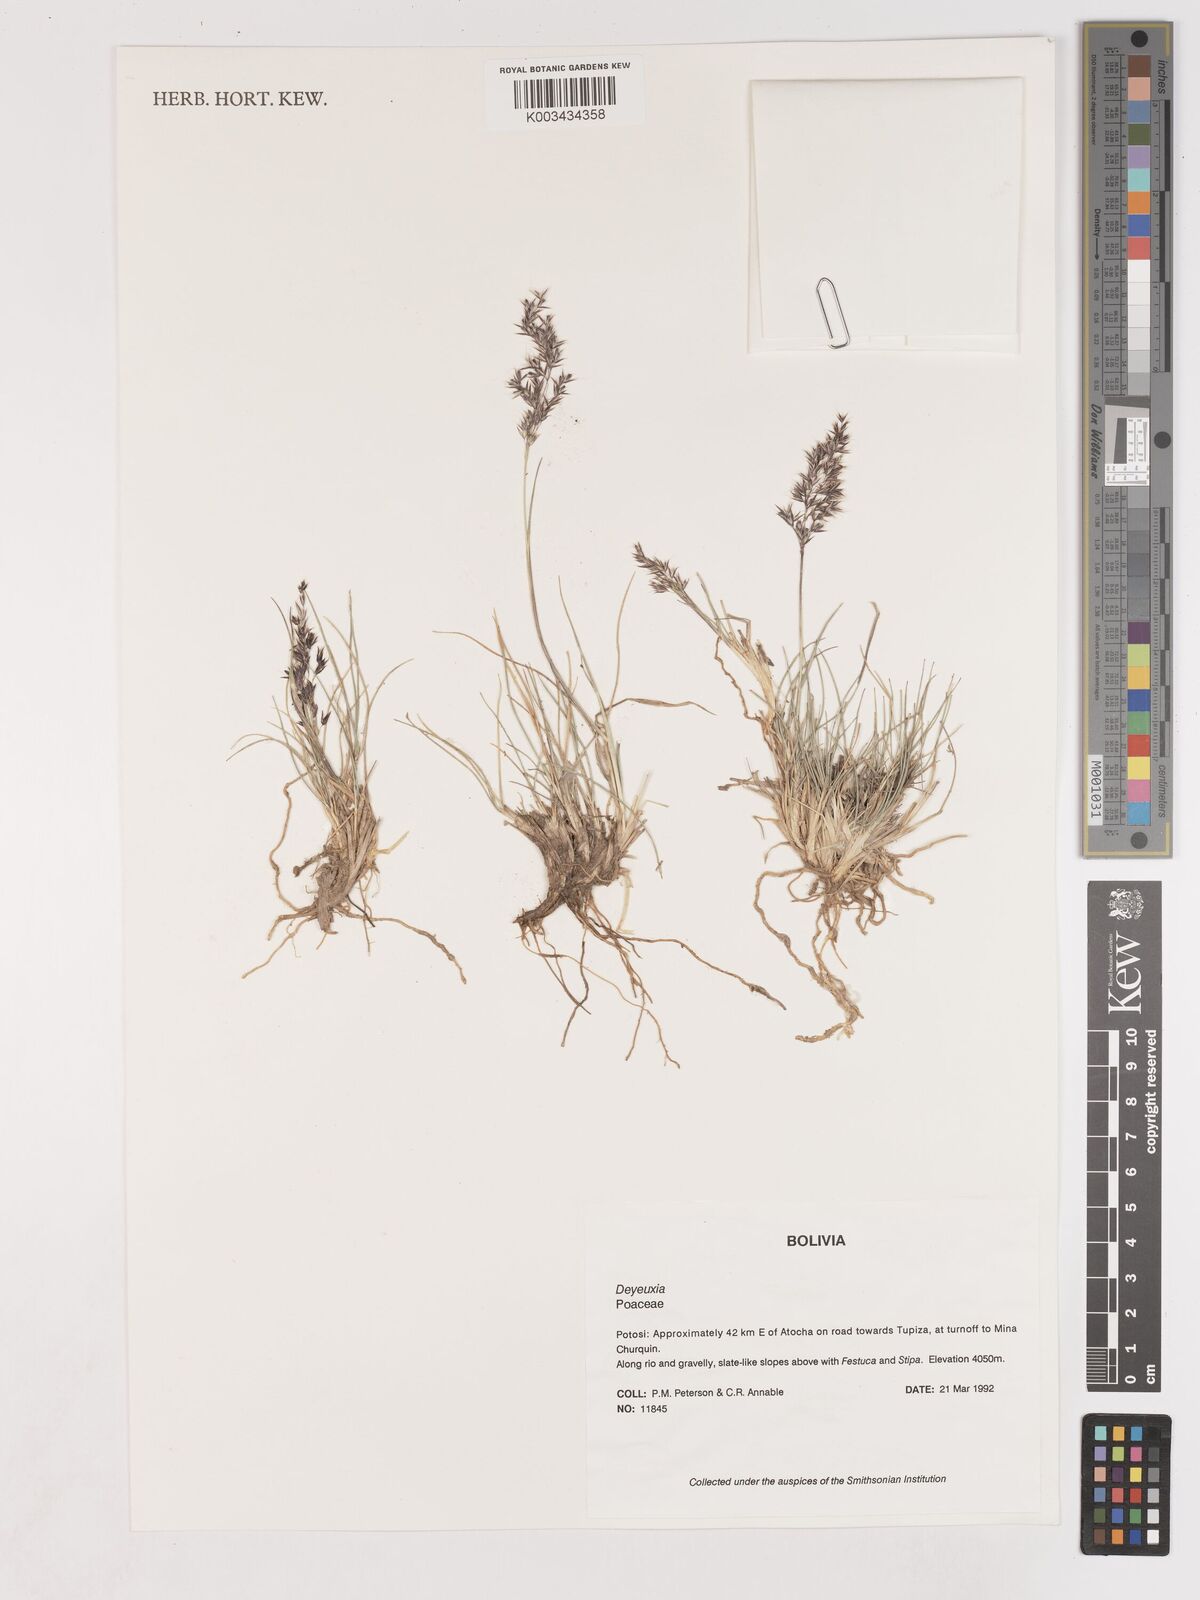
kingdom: Plantae
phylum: Tracheophyta
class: Liliopsida
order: Poales
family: Poaceae
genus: Cinnagrostis
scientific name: Cinnagrostis violacea
